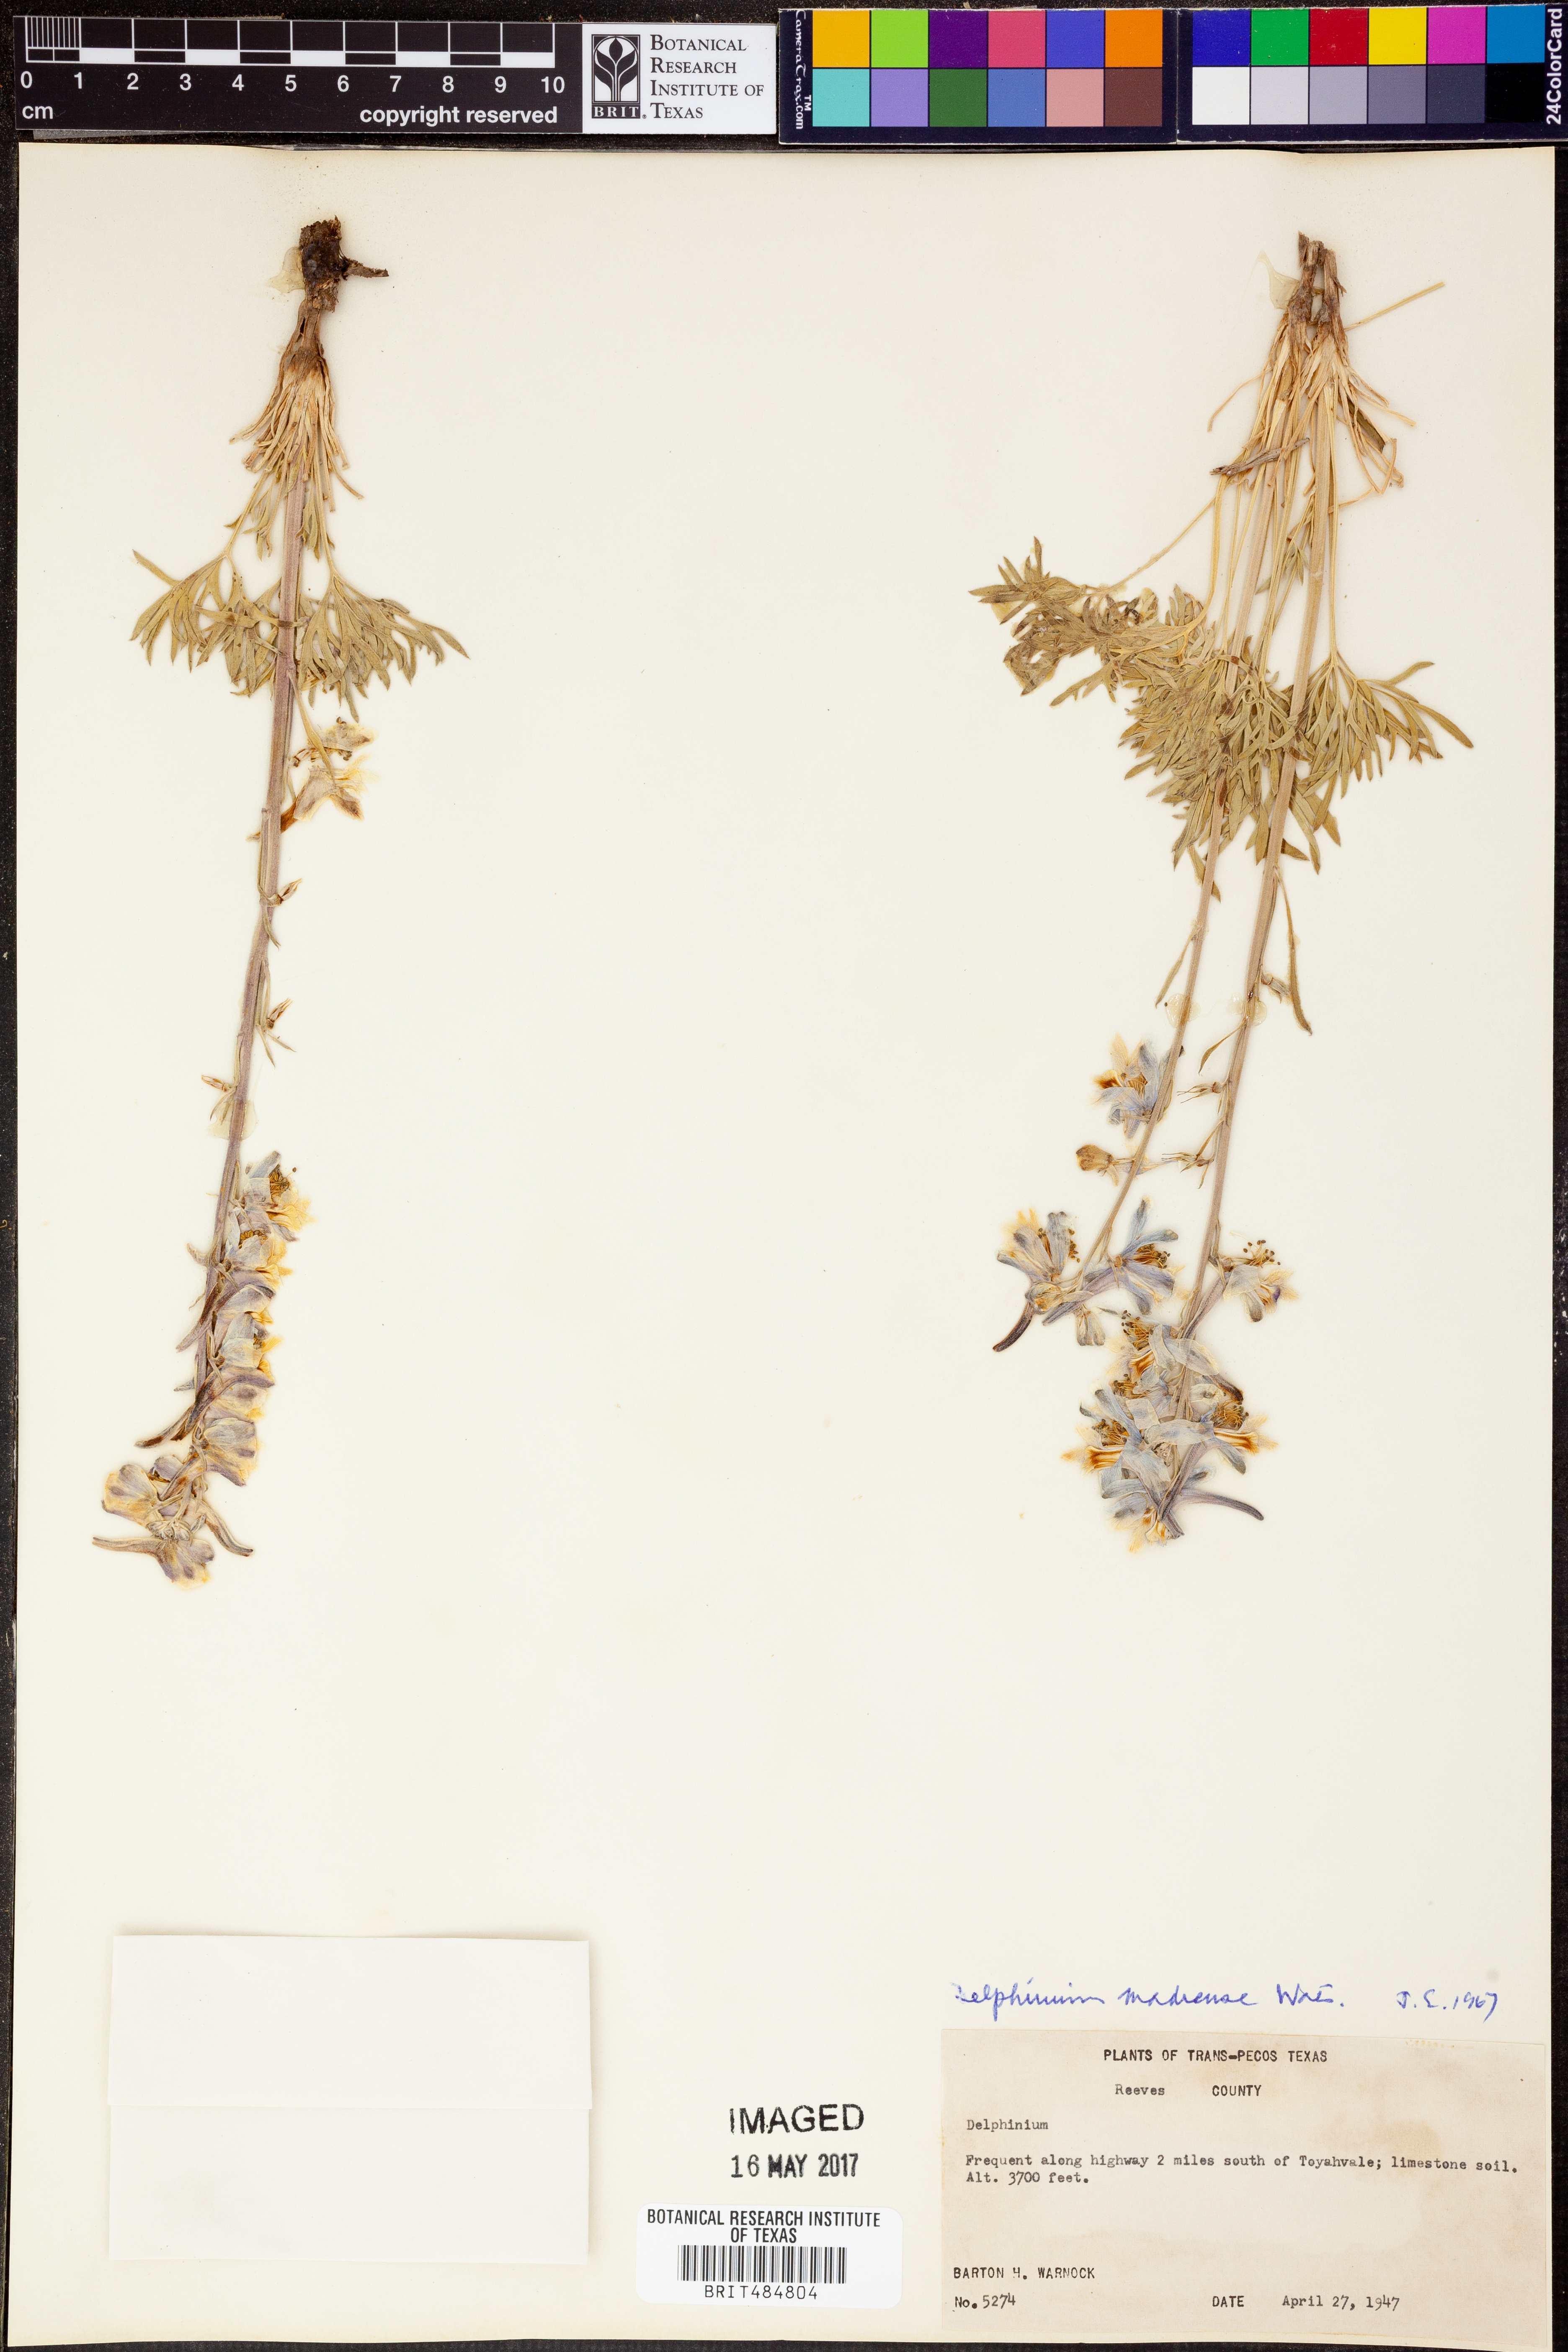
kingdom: Plantae
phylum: Tracheophyta
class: Magnoliopsida
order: Ranunculales
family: Ranunculaceae
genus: Delphinium
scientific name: Delphinium
